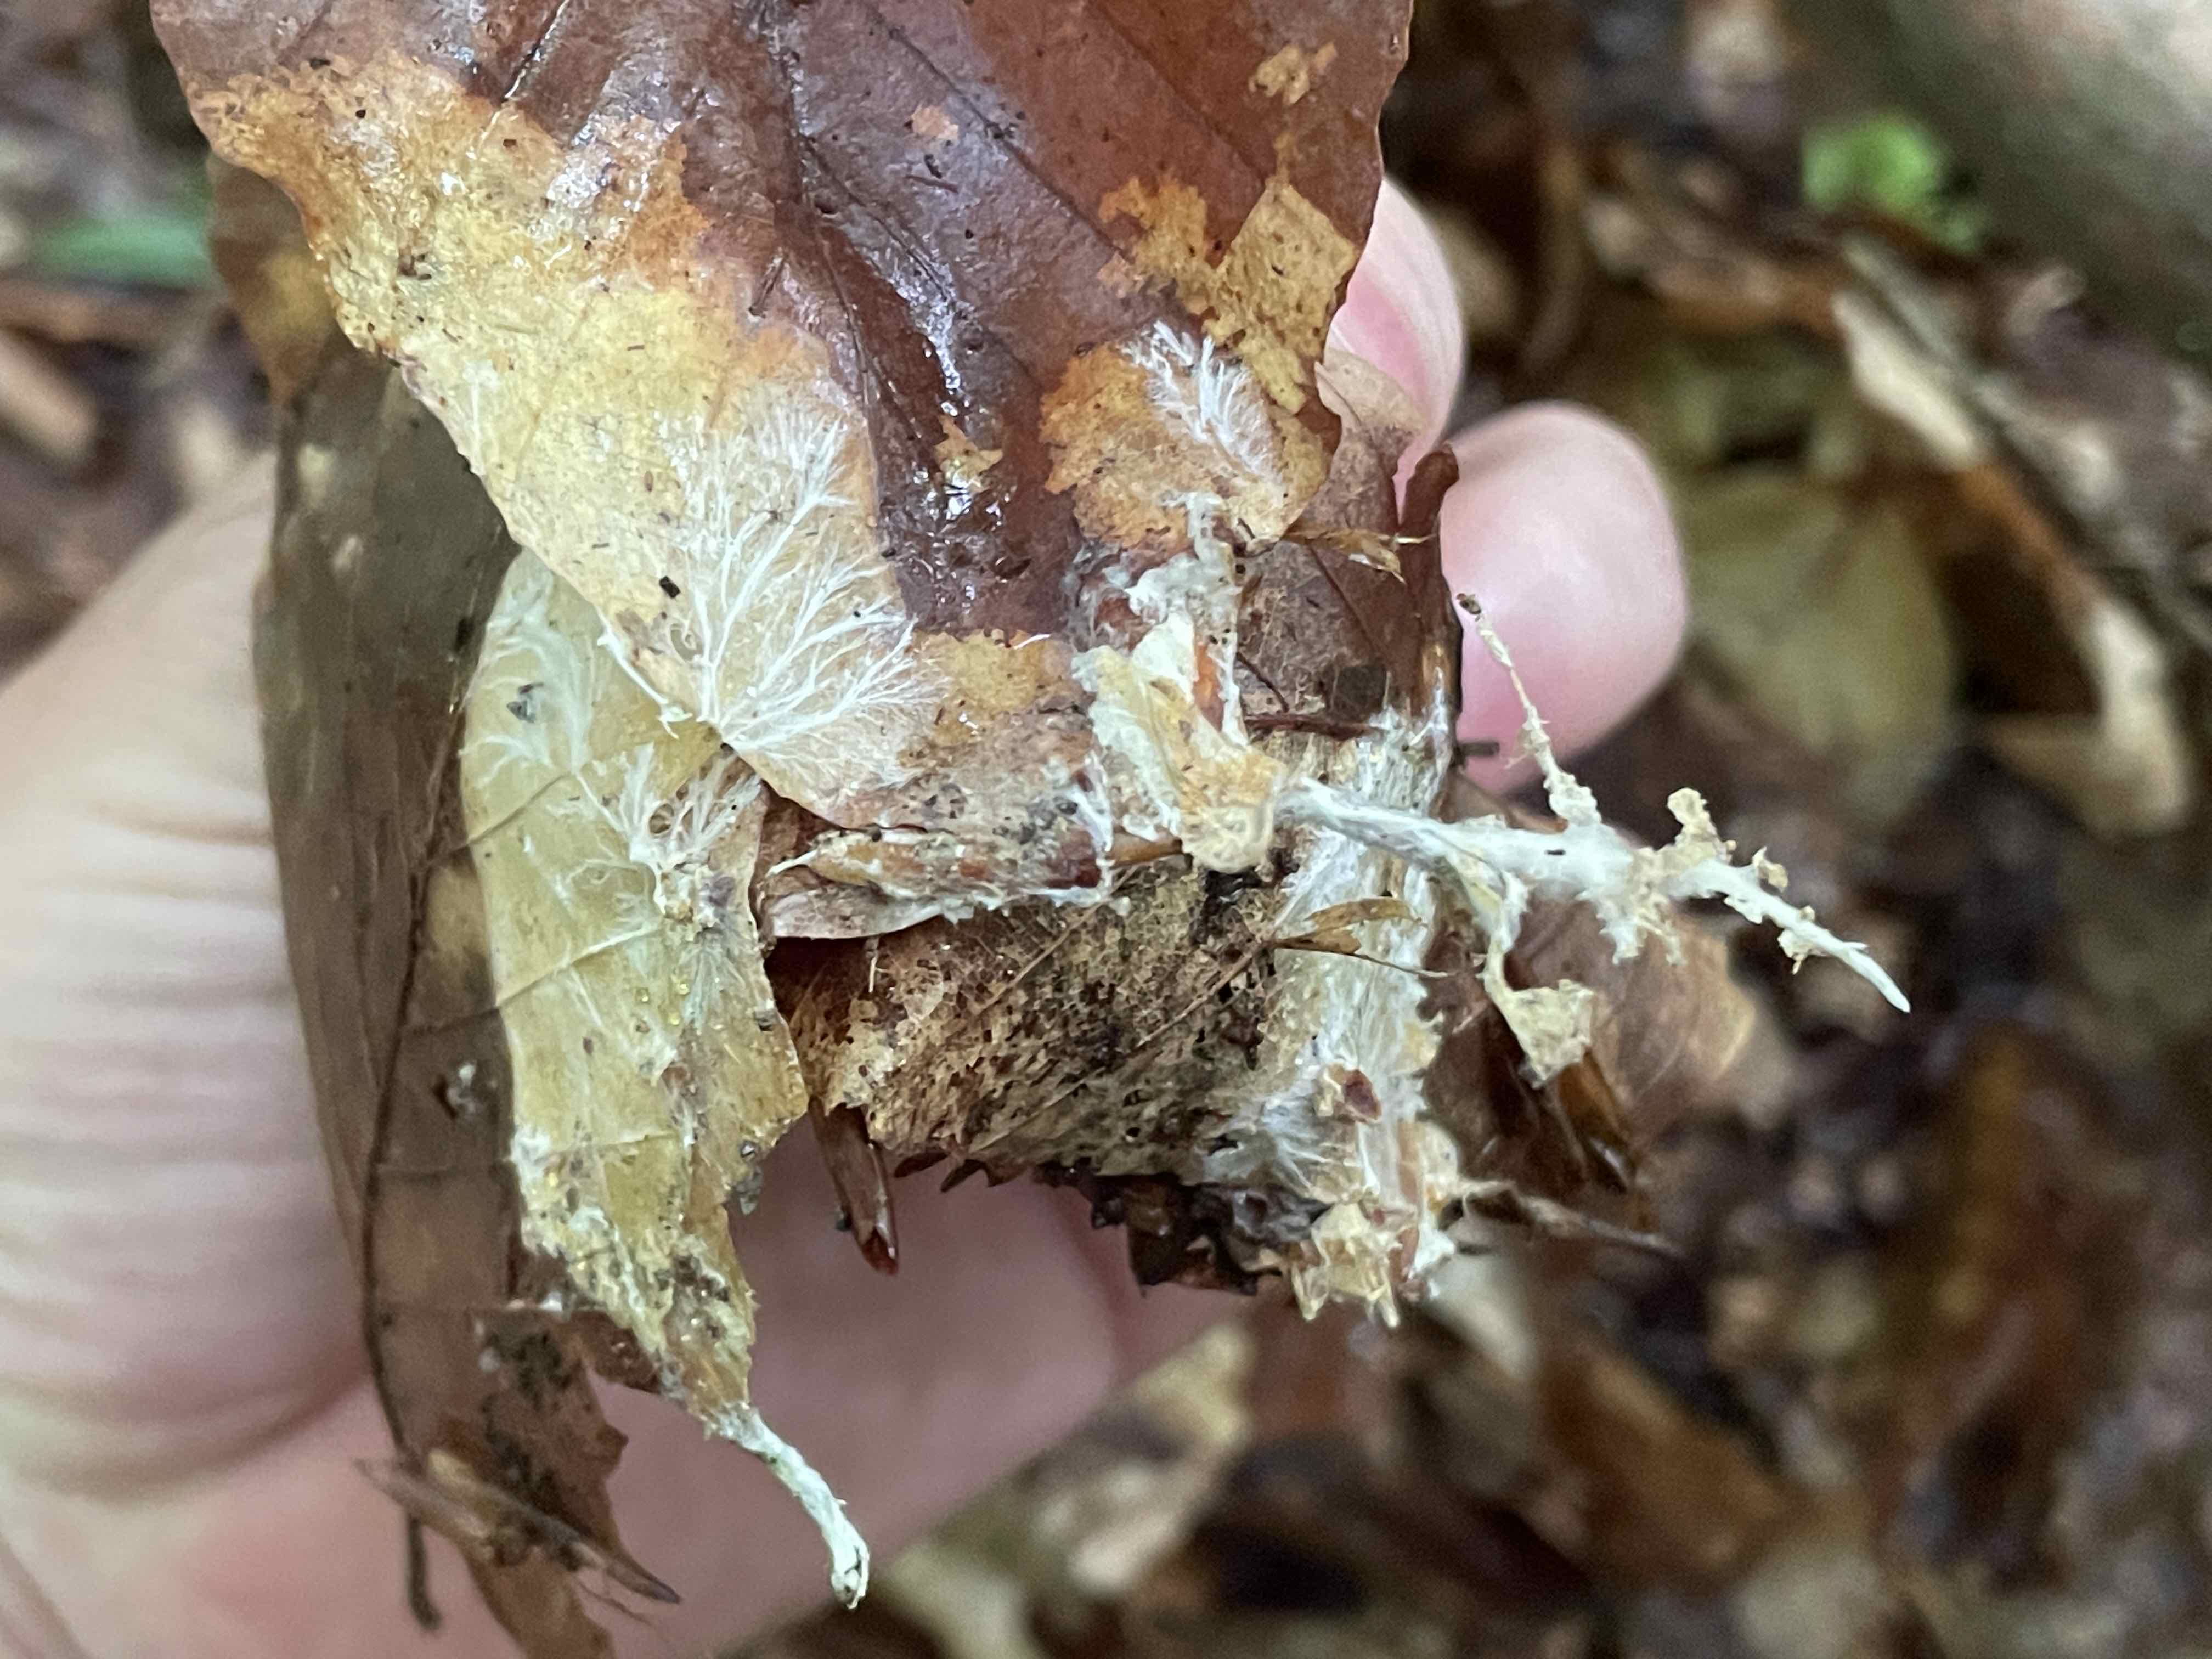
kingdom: Fungi
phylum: Basidiomycota
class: Agaricomycetes
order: Agaricales
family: Omphalotaceae
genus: Collybiopsis
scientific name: Collybiopsis peronata
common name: bestøvlet fladhat
